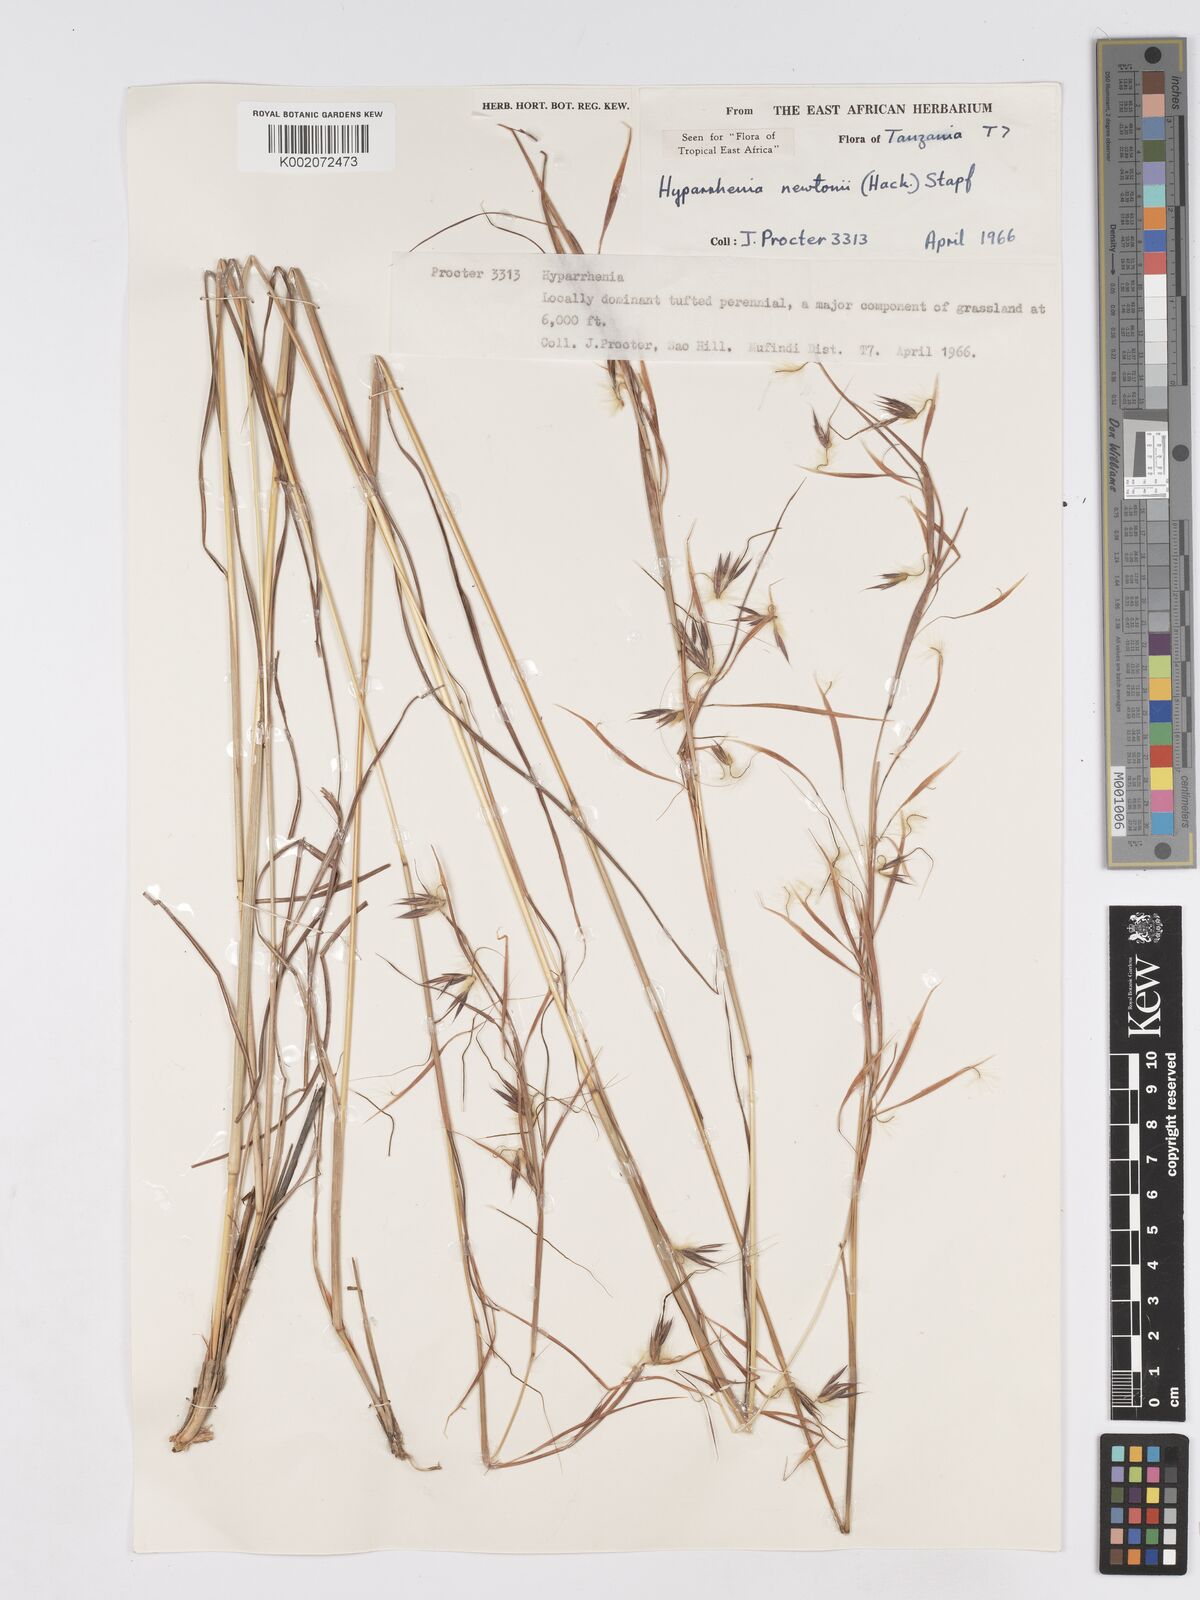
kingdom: Plantae
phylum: Tracheophyta
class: Liliopsida
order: Poales
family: Poaceae
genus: Hyparrhenia
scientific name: Hyparrhenia newtonii
